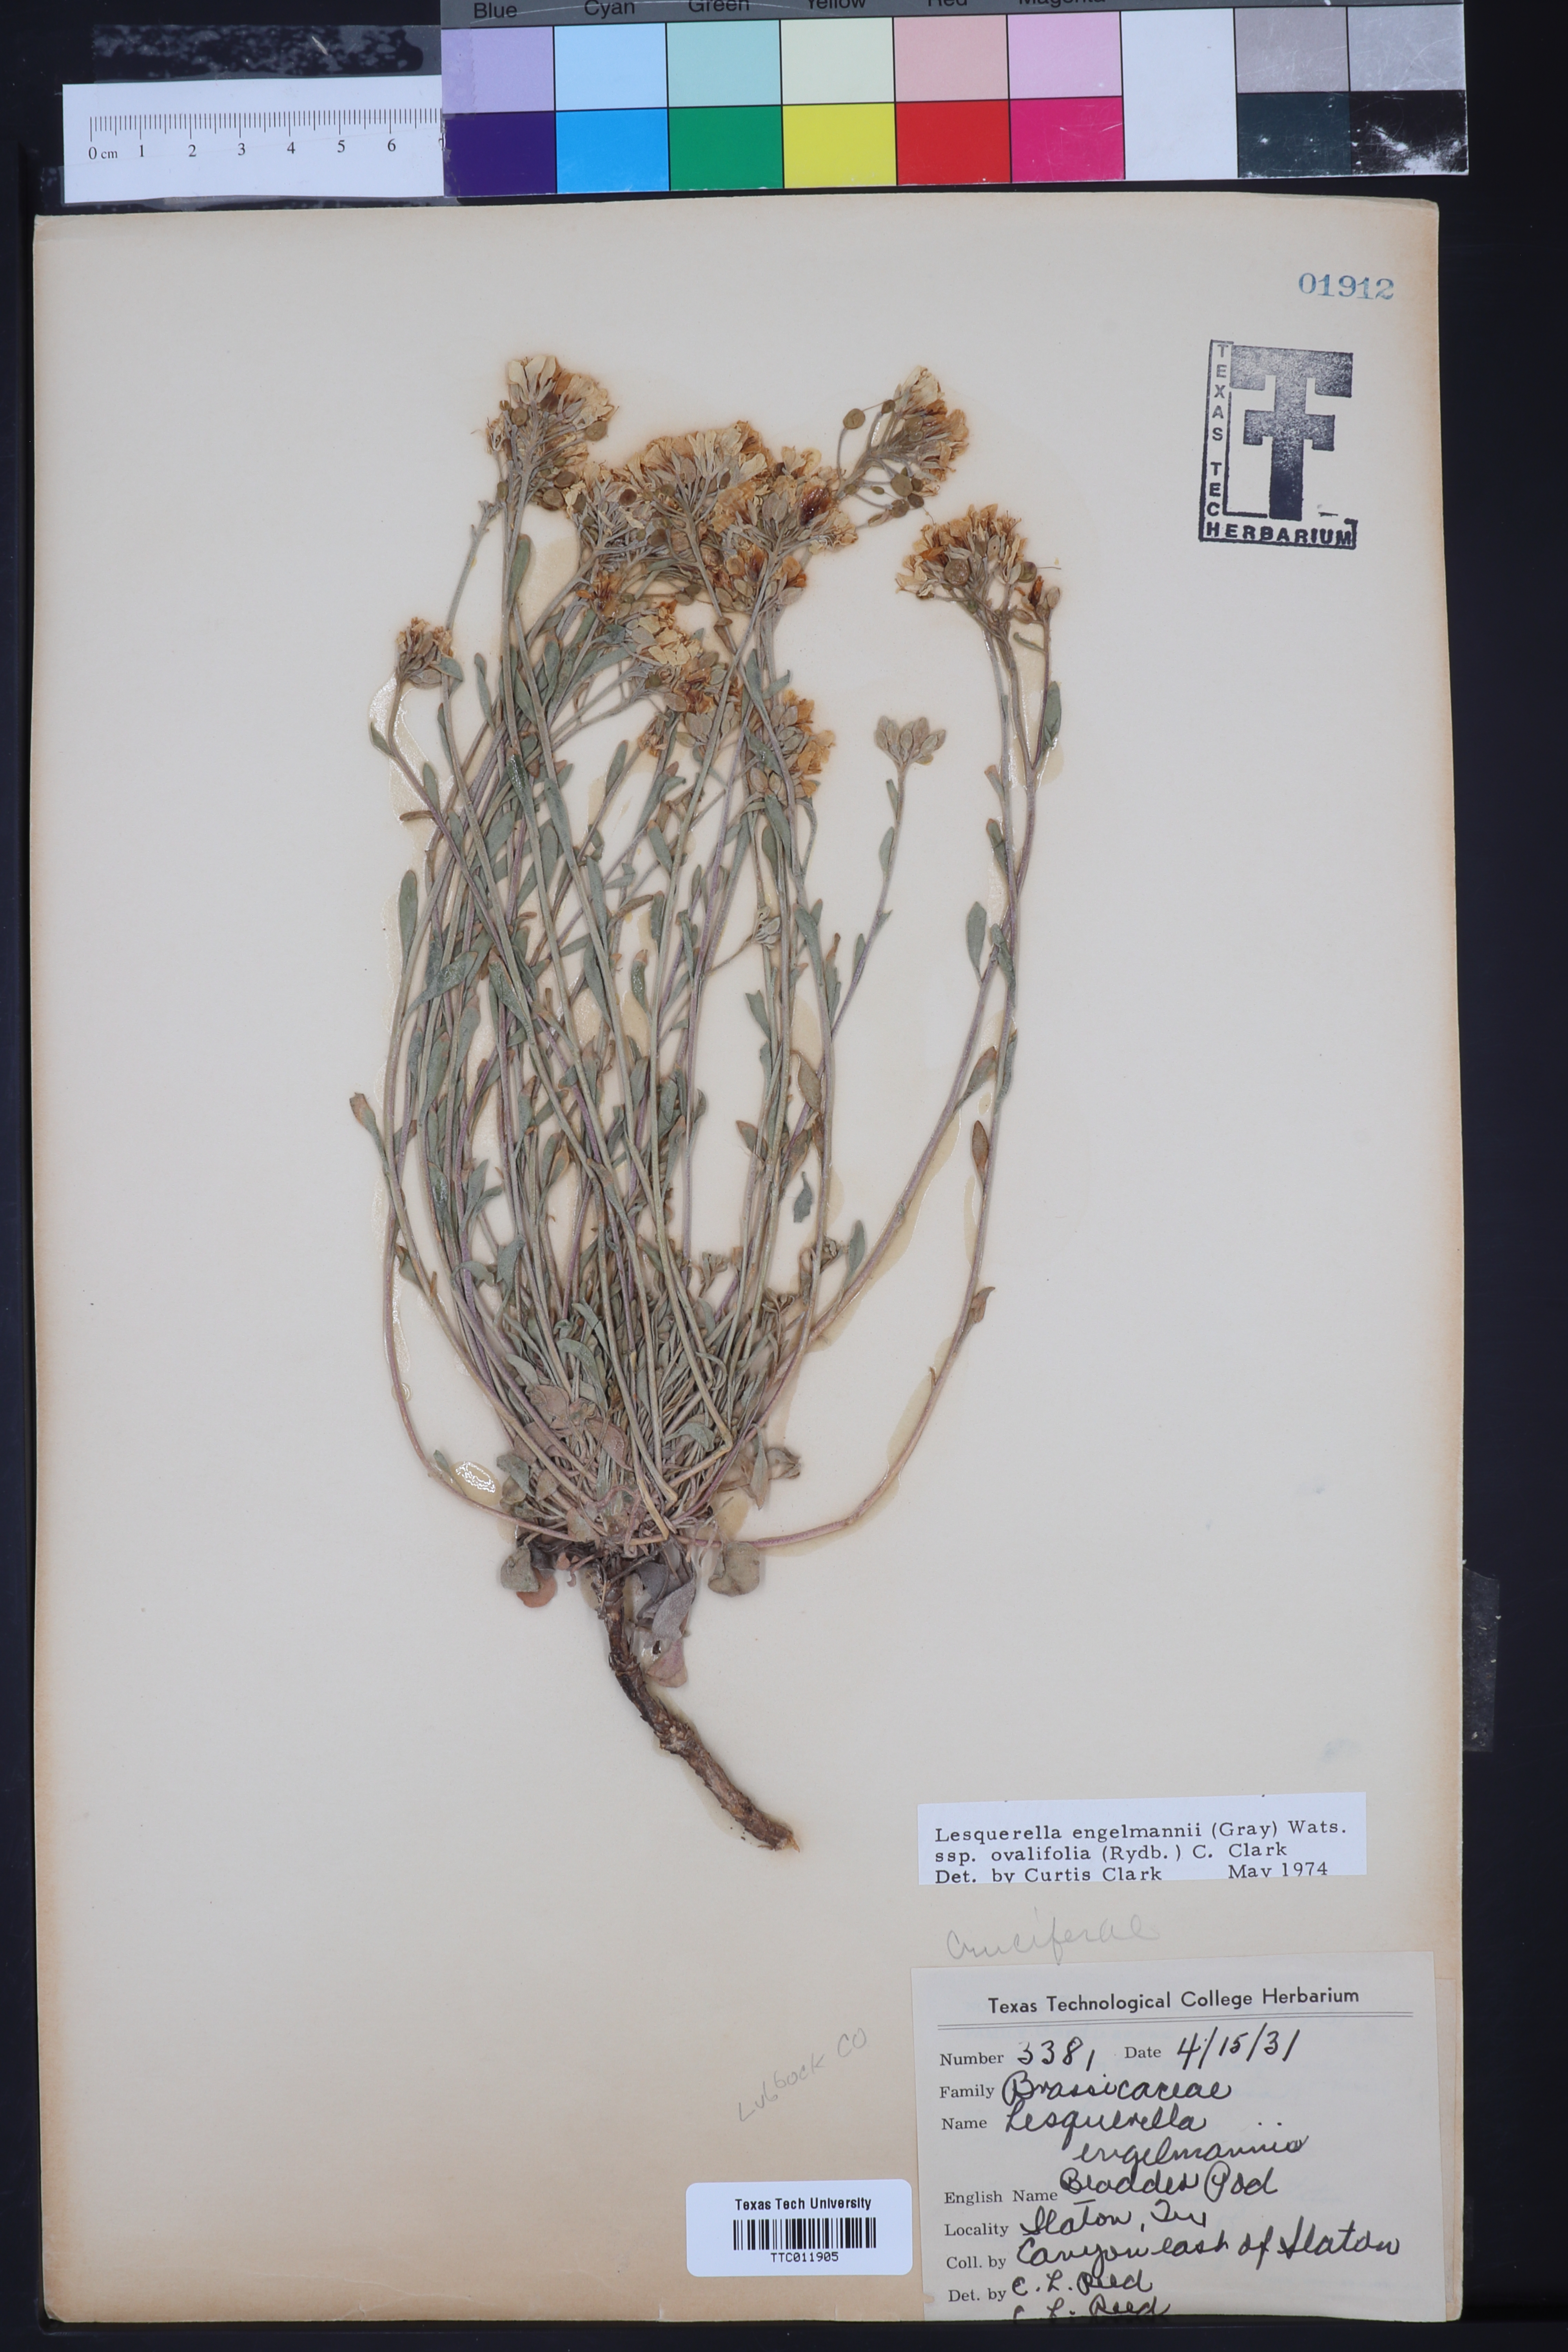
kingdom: Plantae
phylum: Tracheophyta
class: Magnoliopsida
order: Brassicales
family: Brassicaceae
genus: Physaria
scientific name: Physaria ovalifolia
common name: Round-leaf bladderpod
